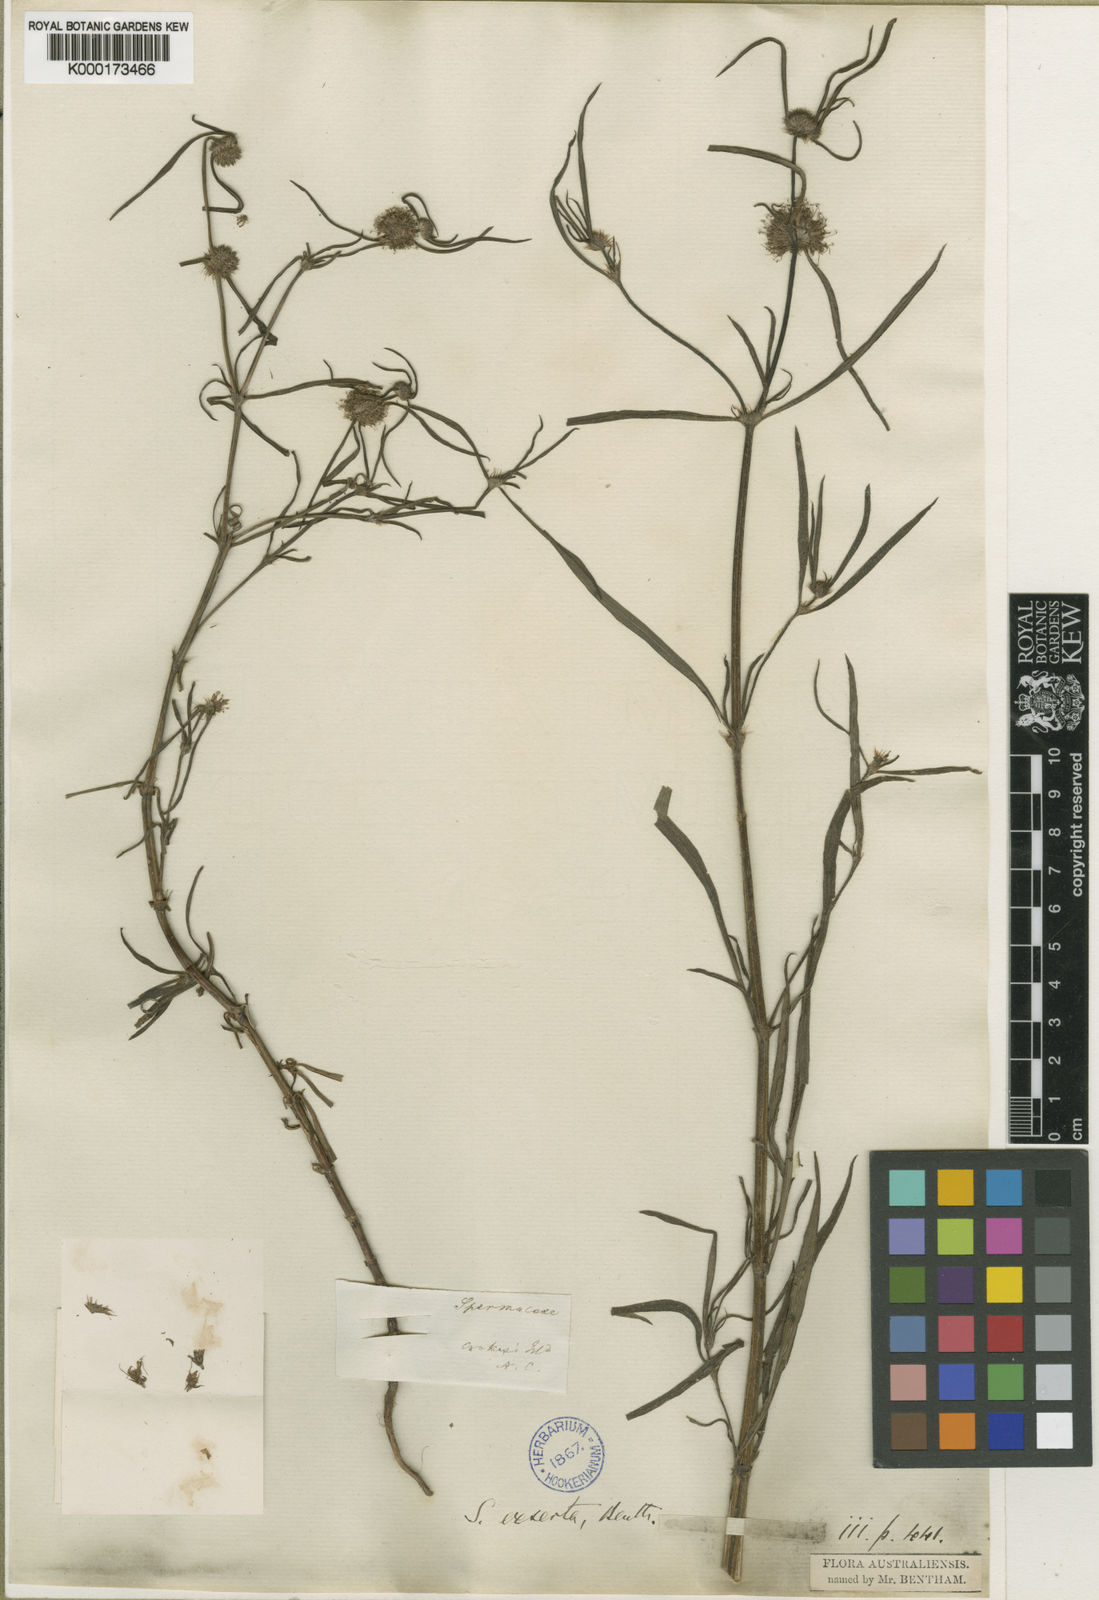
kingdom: Plantae
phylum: Tracheophyta
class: Magnoliopsida
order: Gentianales
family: Rubiaceae
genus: Spermacoce
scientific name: Spermacoce stenophylla
